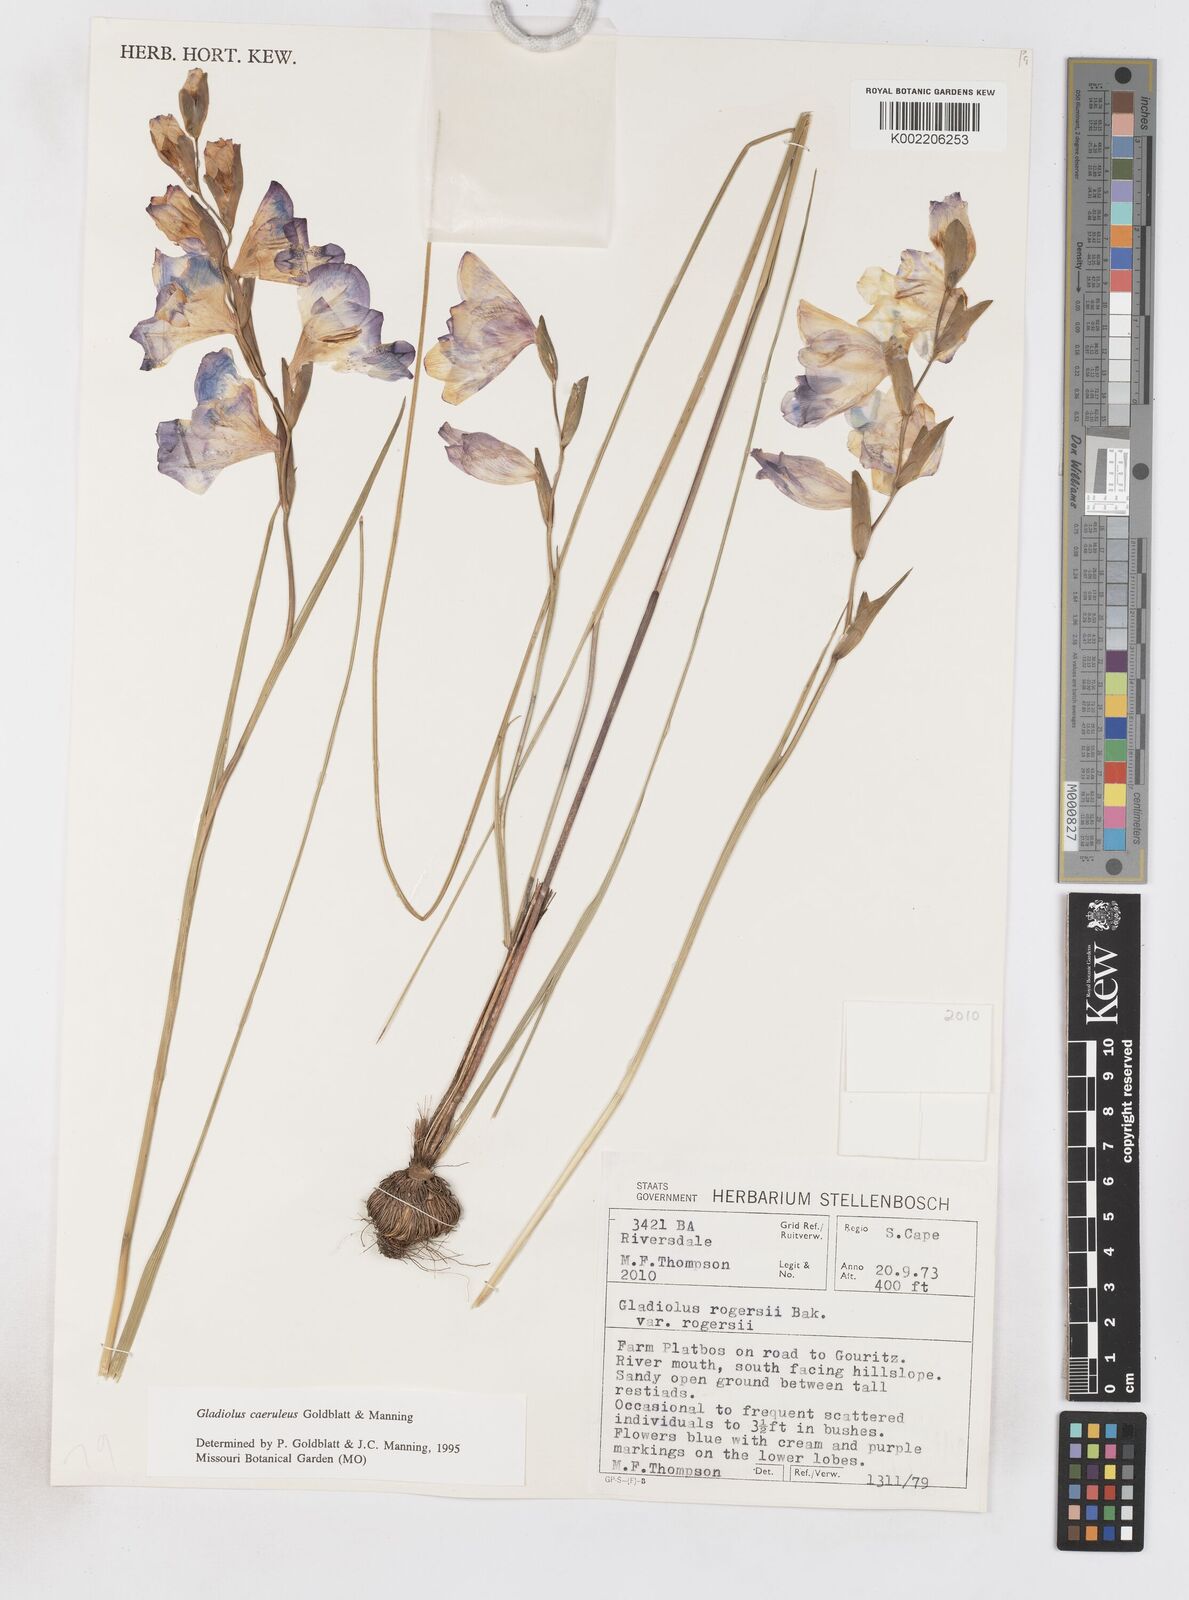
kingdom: Plantae
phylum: Tracheophyta
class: Liliopsida
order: Asparagales
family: Iridaceae
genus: Gladiolus
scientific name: Gladiolus caeruleus
